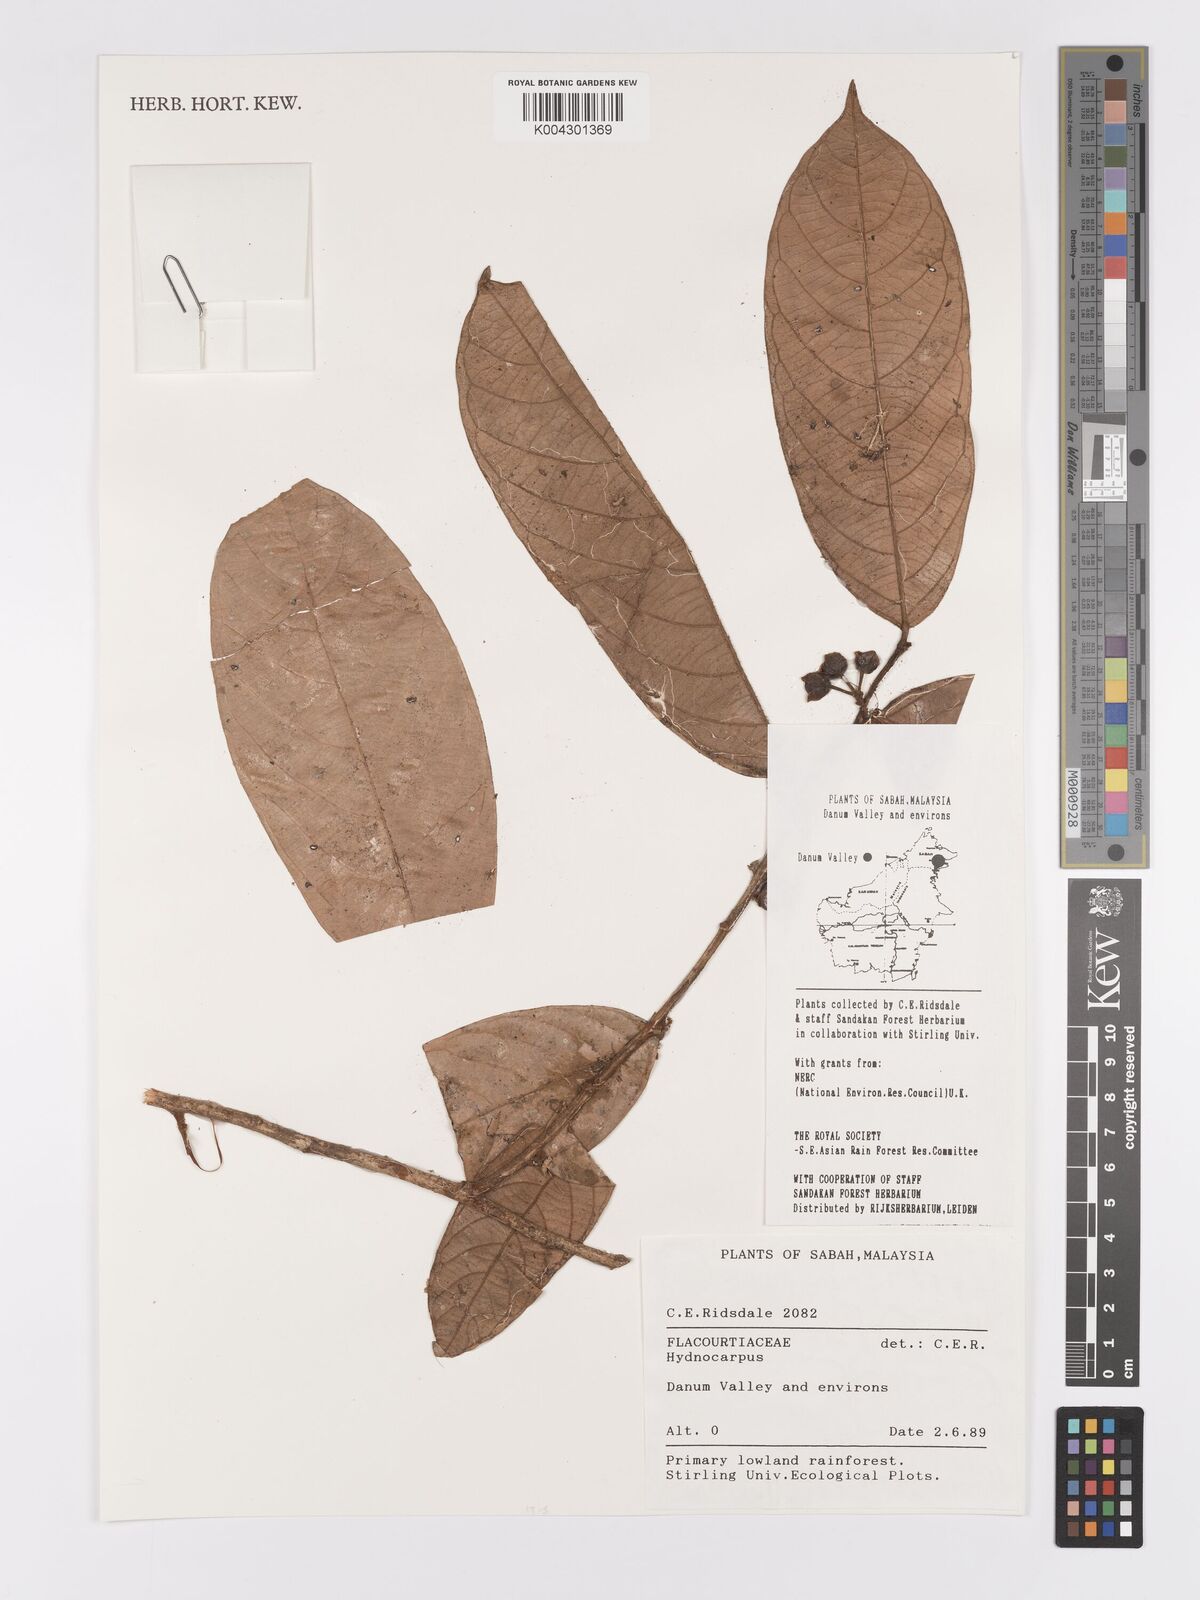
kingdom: Plantae
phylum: Tracheophyta
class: Magnoliopsida
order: Malpighiales
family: Achariaceae
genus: Hydnocarpus
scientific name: Hydnocarpus
